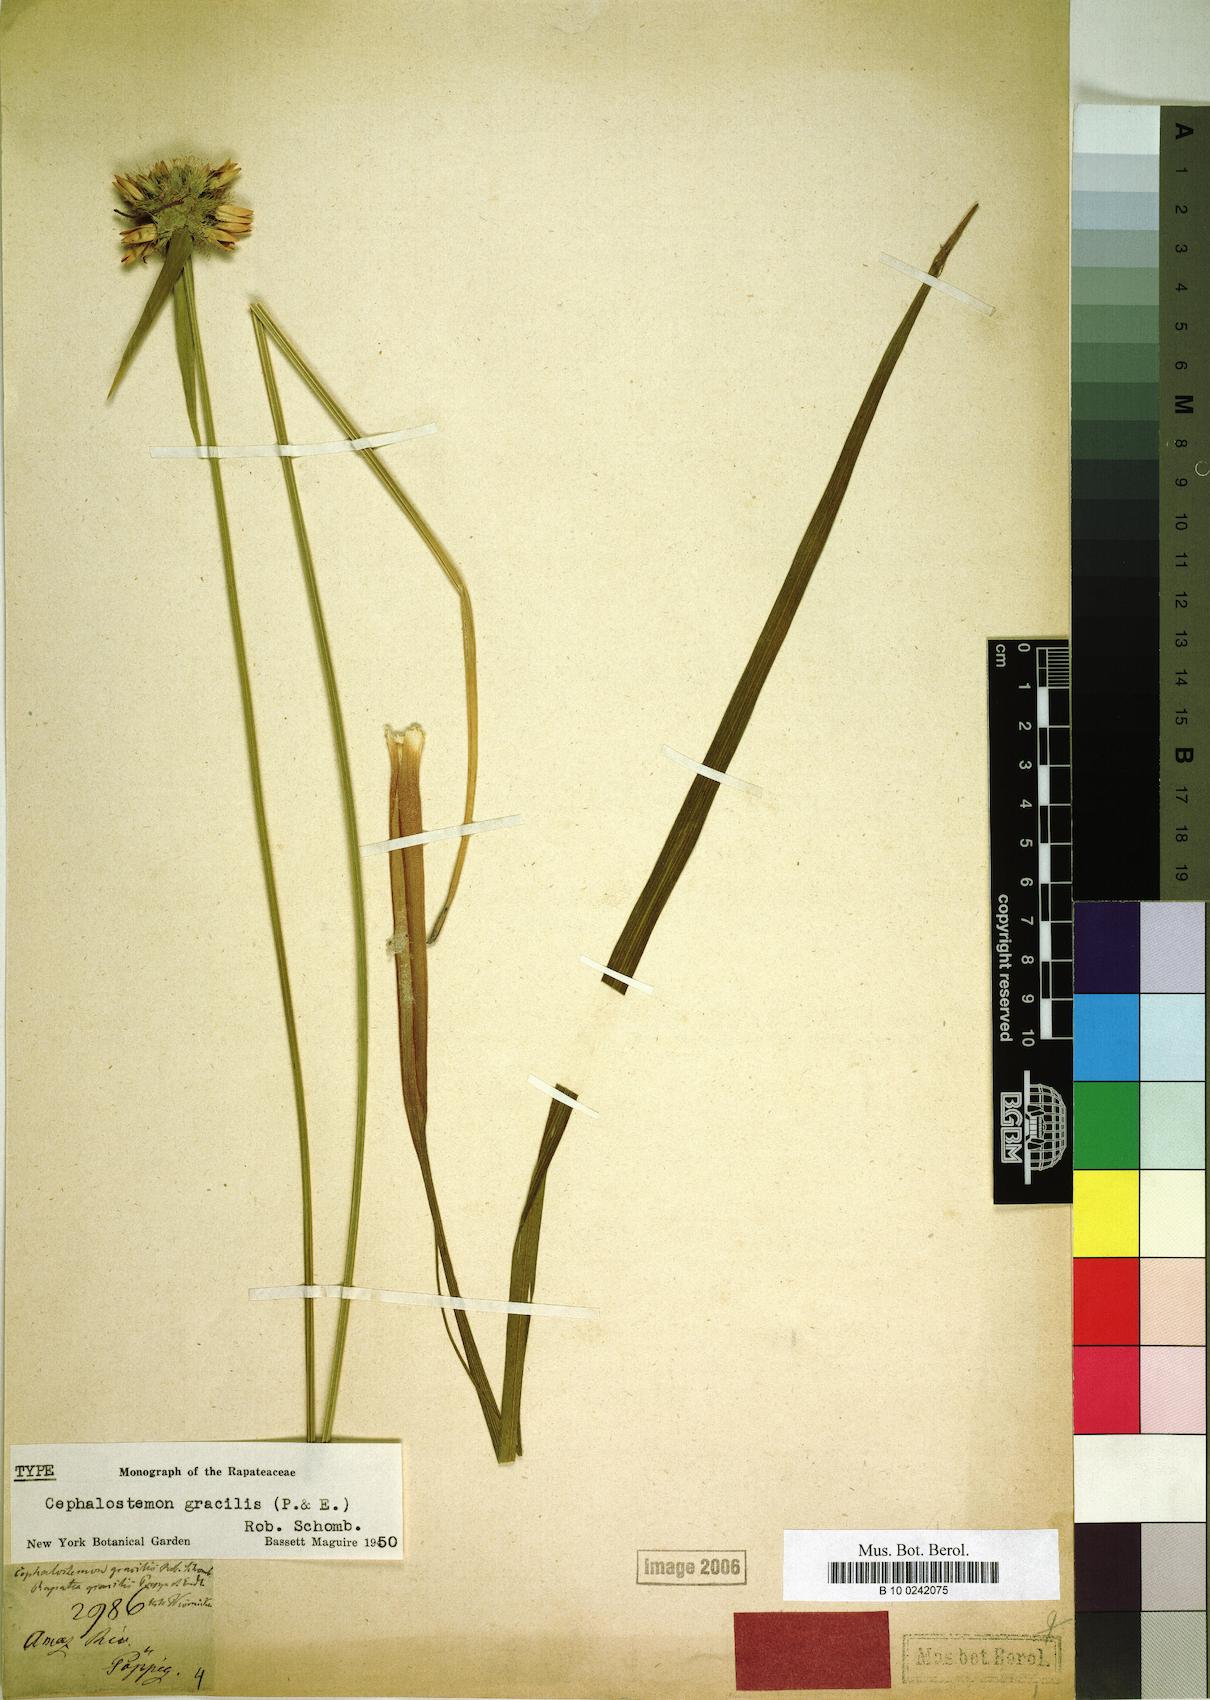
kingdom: Plantae
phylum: Tracheophyta
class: Liliopsida
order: Poales
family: Rapateaceae
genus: Cephalostemon
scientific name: Cephalostemon gracilis
